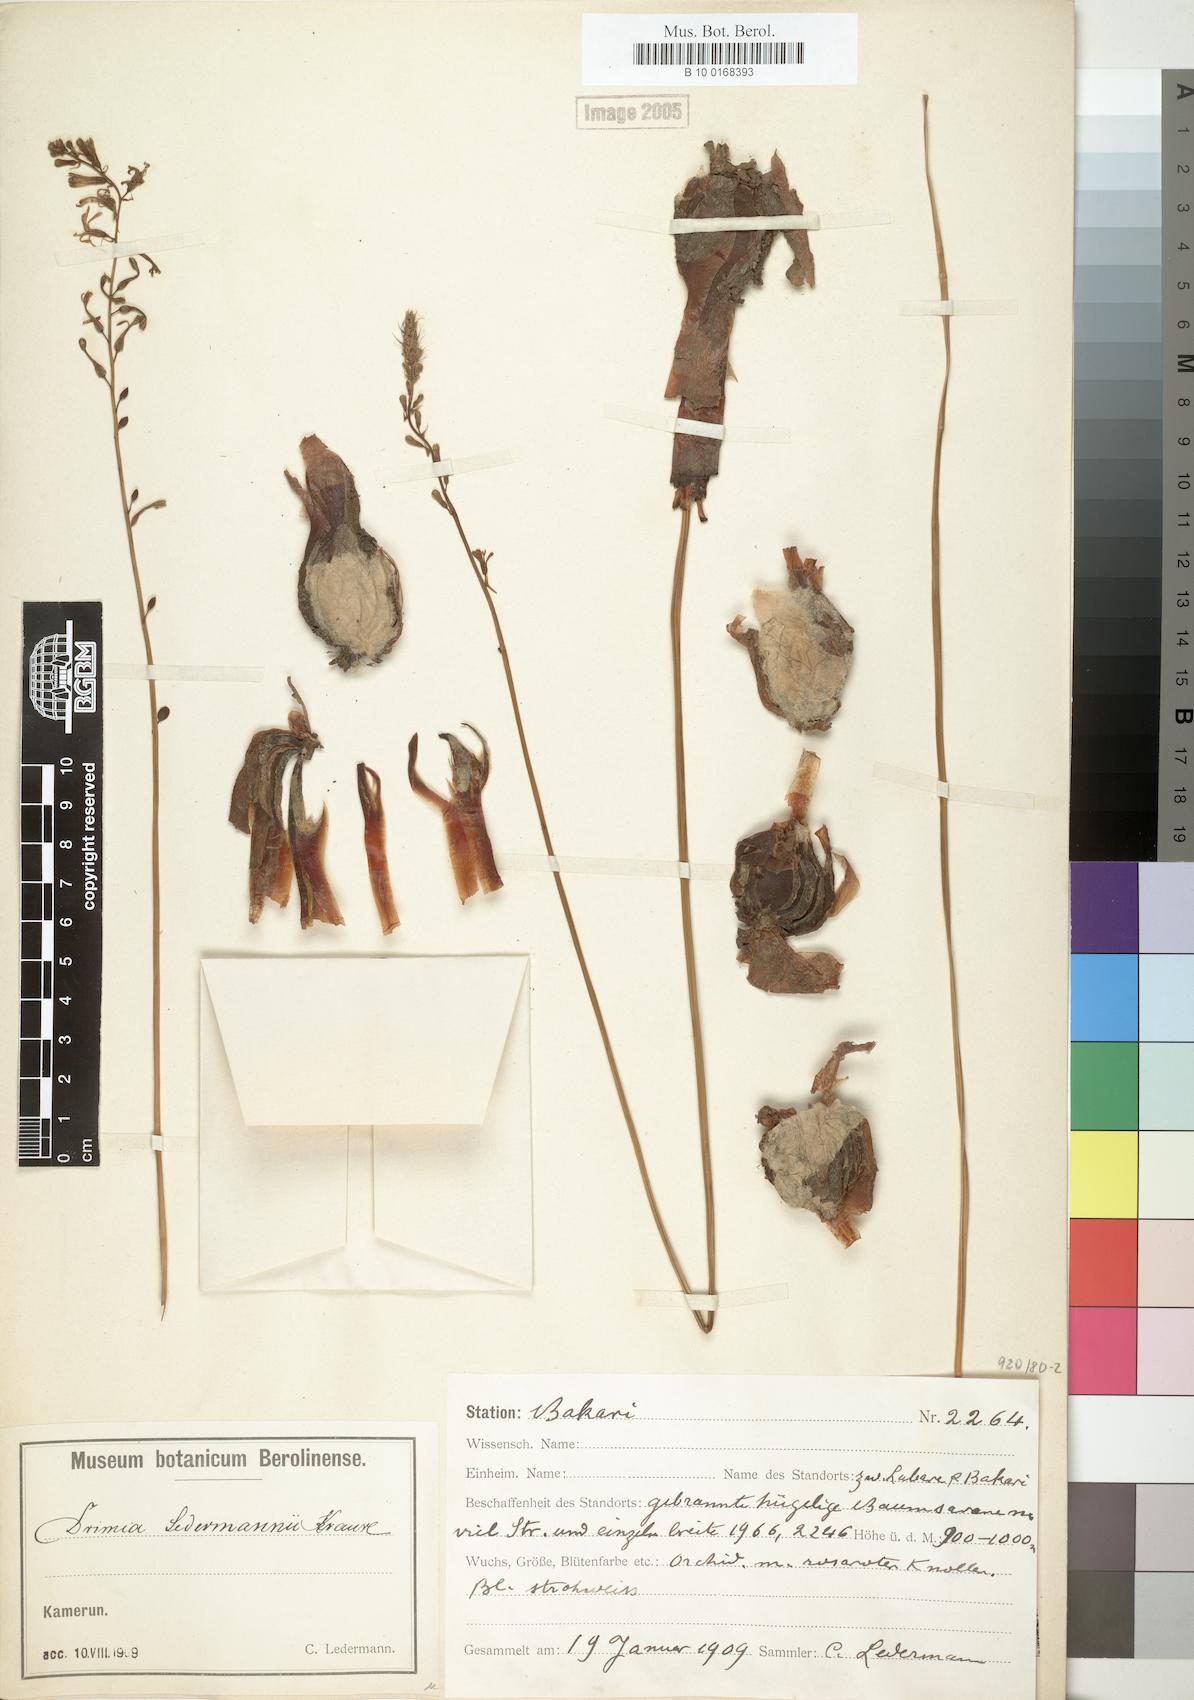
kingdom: Plantae
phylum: Tracheophyta
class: Liliopsida
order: Asparagales
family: Asparagaceae
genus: Drimia
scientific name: Drimia ledermannii
